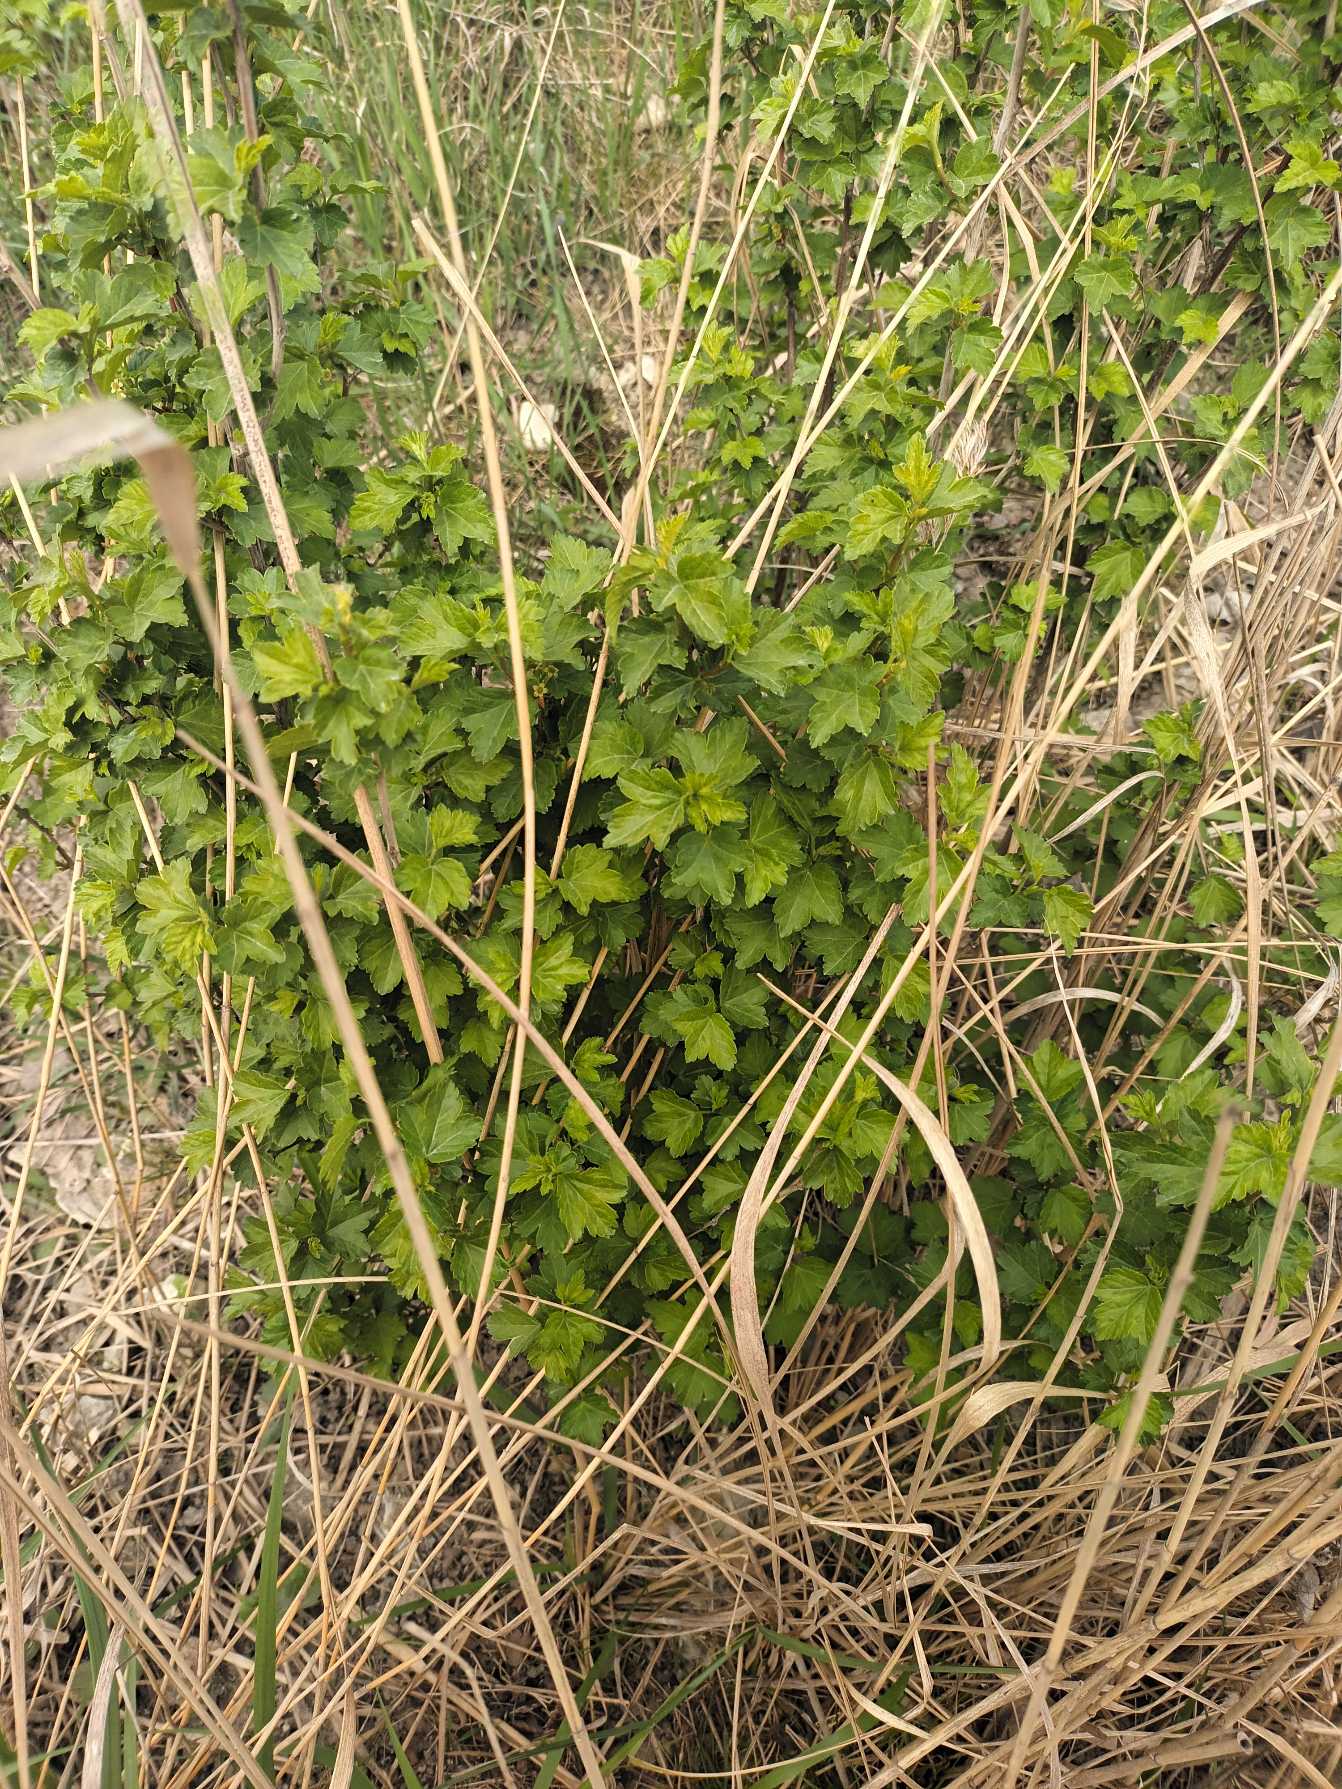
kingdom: Plantae
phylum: Tracheophyta
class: Magnoliopsida
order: Saxifragales
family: Grossulariaceae
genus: Ribes
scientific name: Ribes alpinum
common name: Fjeld-ribs
